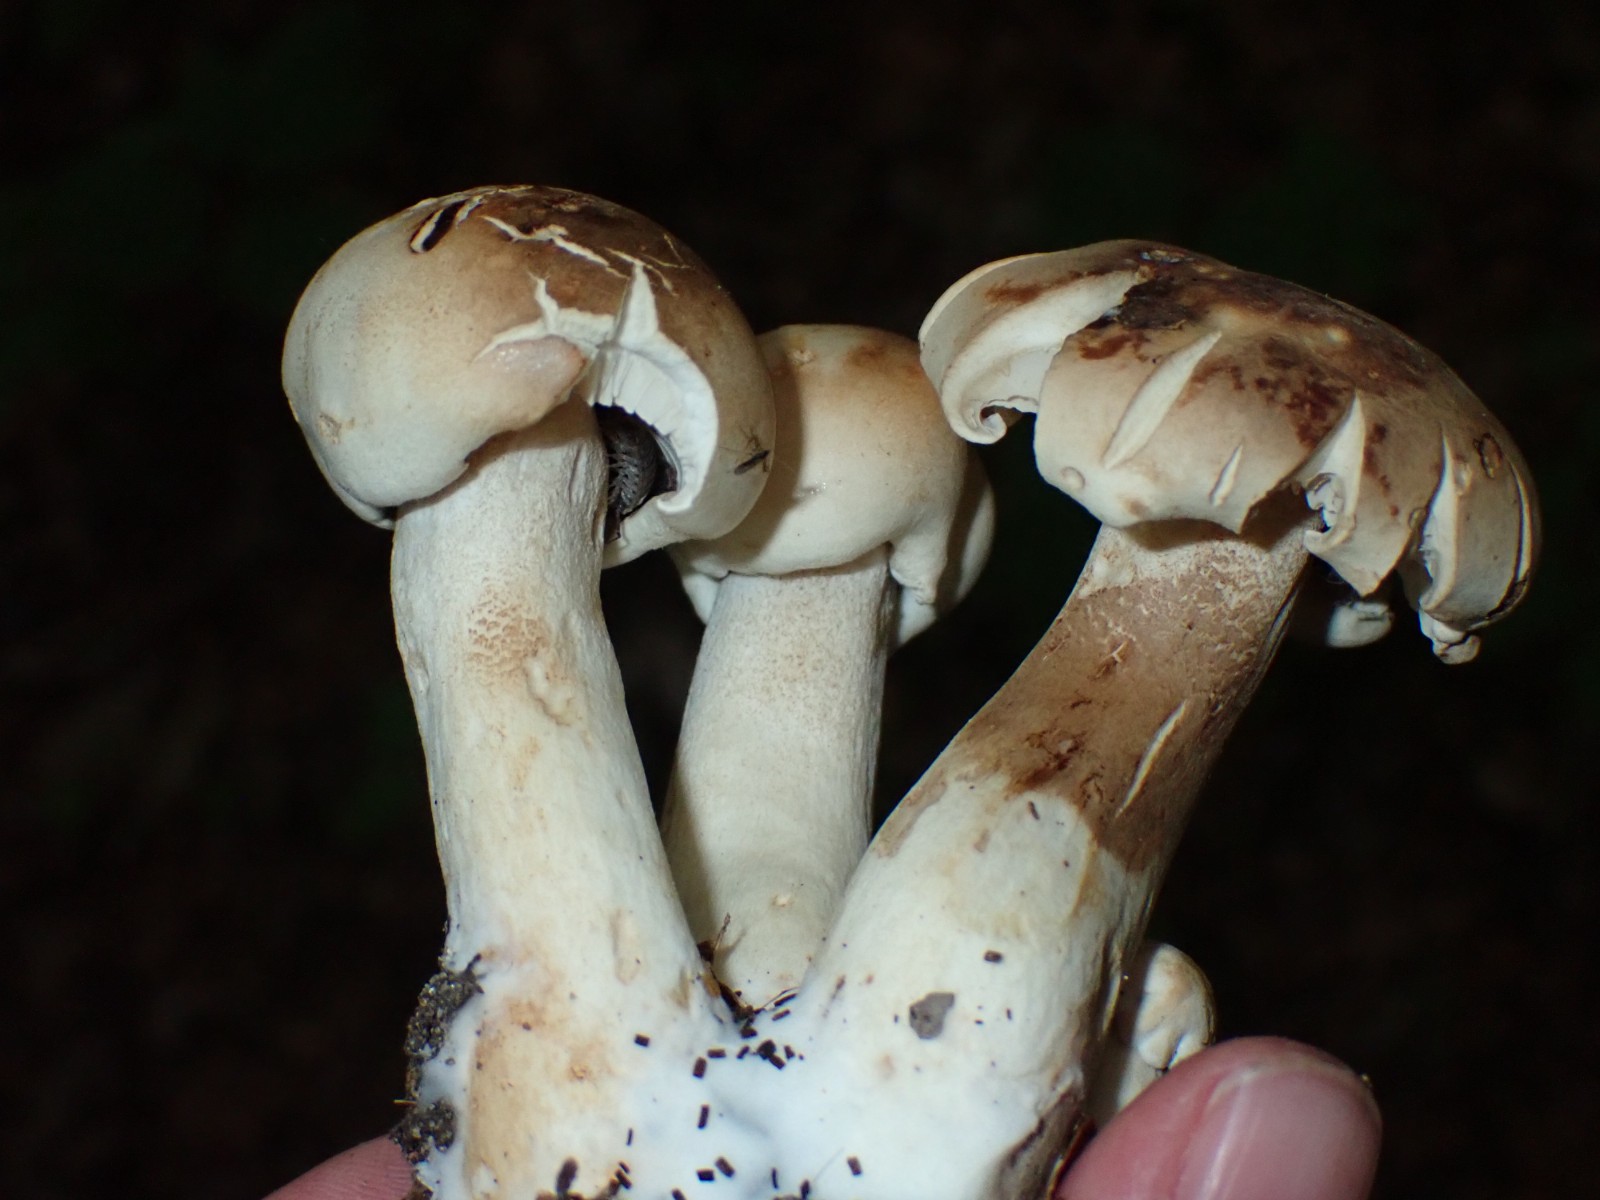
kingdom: Fungi
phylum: Basidiomycota
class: Agaricomycetes
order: Agaricales
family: Tricholomataceae
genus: Tricholoma
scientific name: Tricholoma
